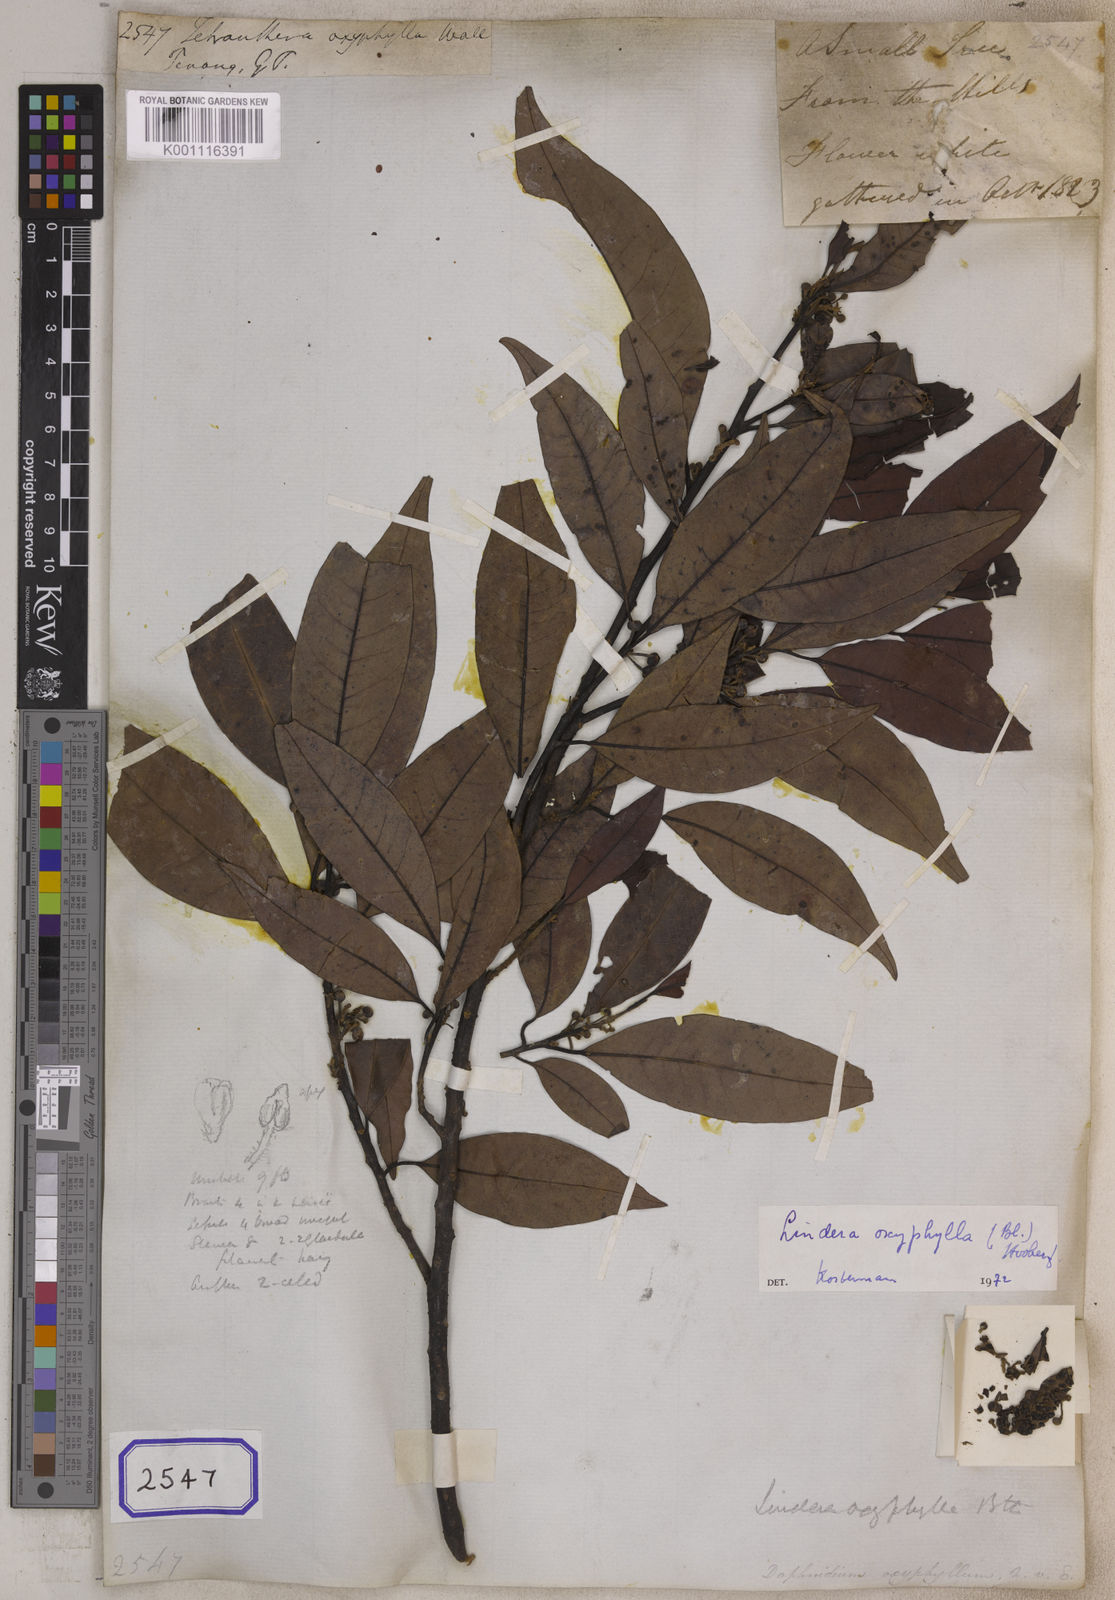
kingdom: Plantae
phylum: Tracheophyta
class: Magnoliopsida
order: Laurales
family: Lauraceae
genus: Litsea
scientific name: Litsea cubeba
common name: Mountain-pepper
